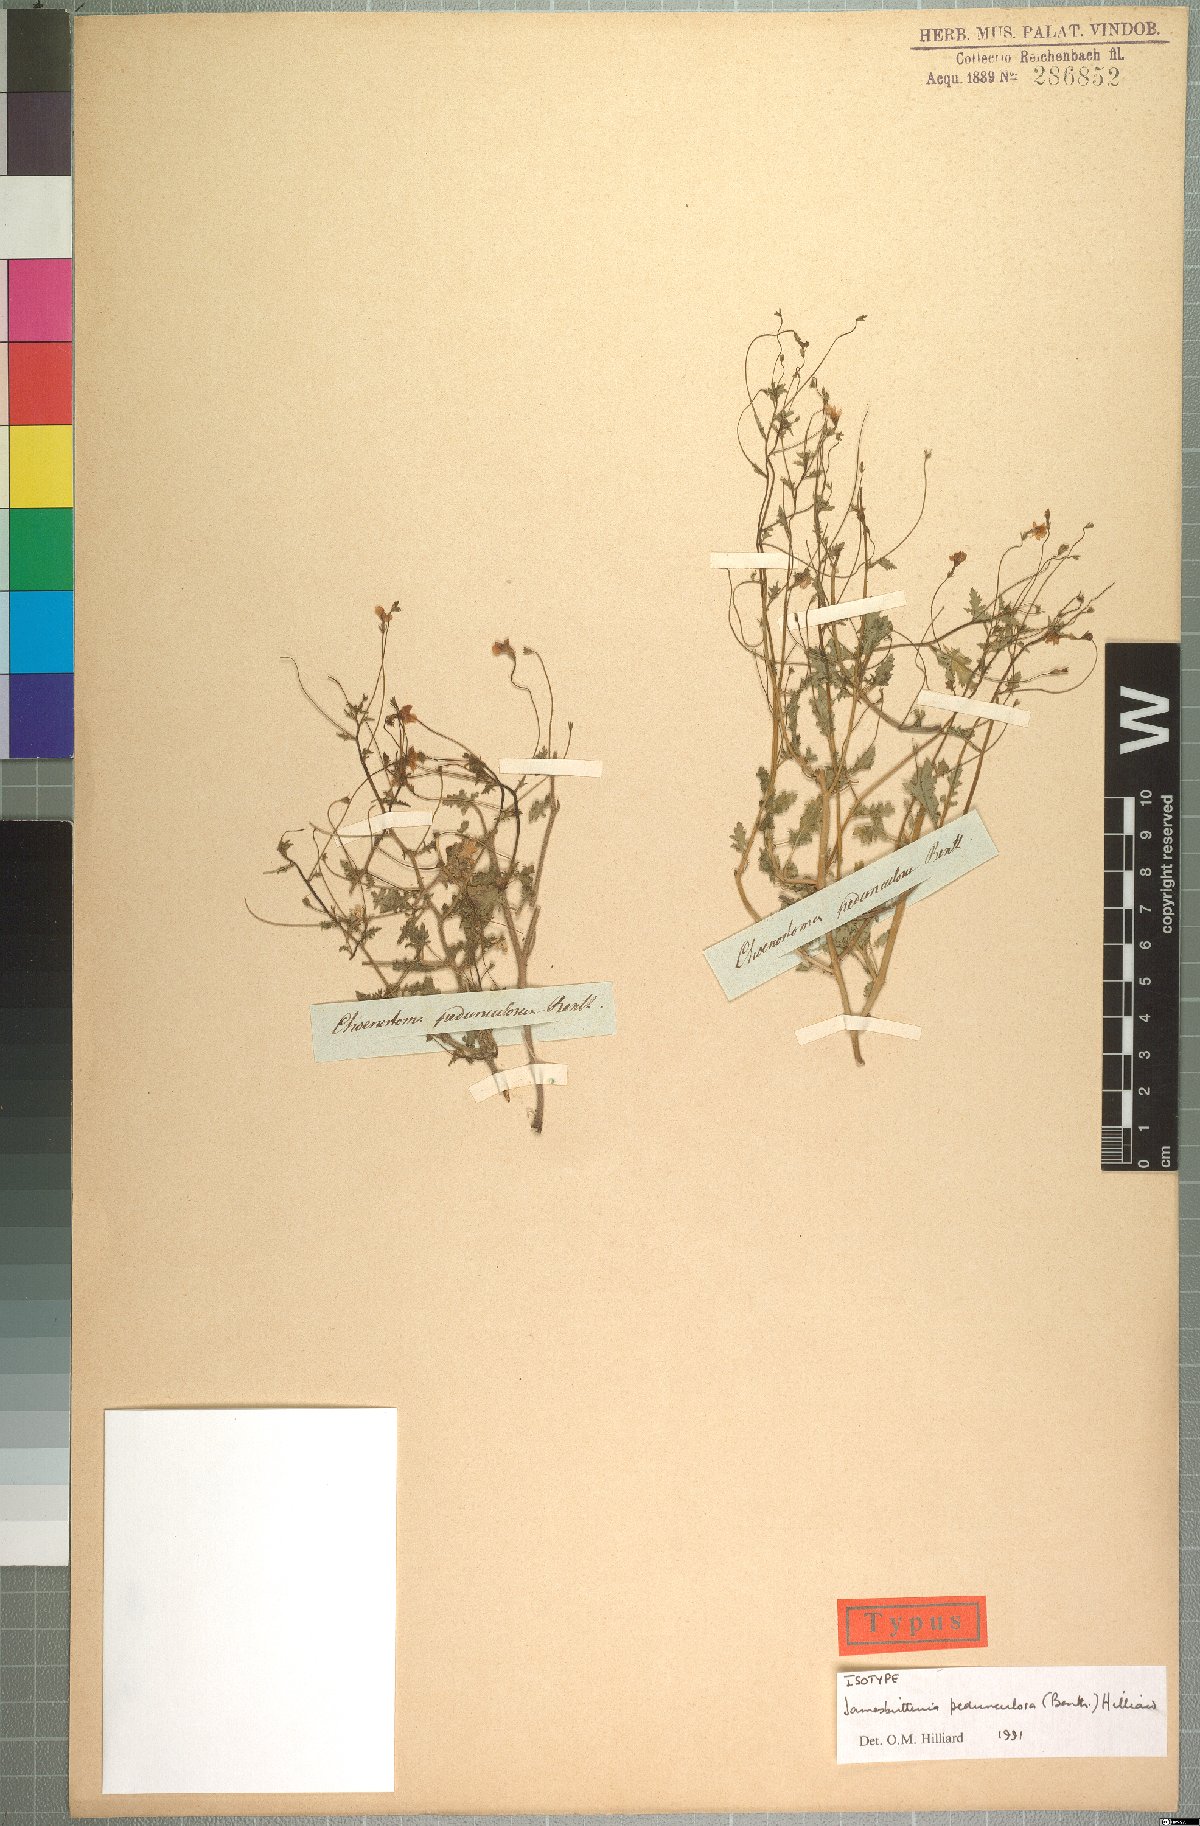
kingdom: Plantae
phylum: Tracheophyta
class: Magnoliopsida
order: Lamiales
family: Scrophulariaceae
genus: Jamesbrittenia
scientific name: Jamesbrittenia pedunculosa
